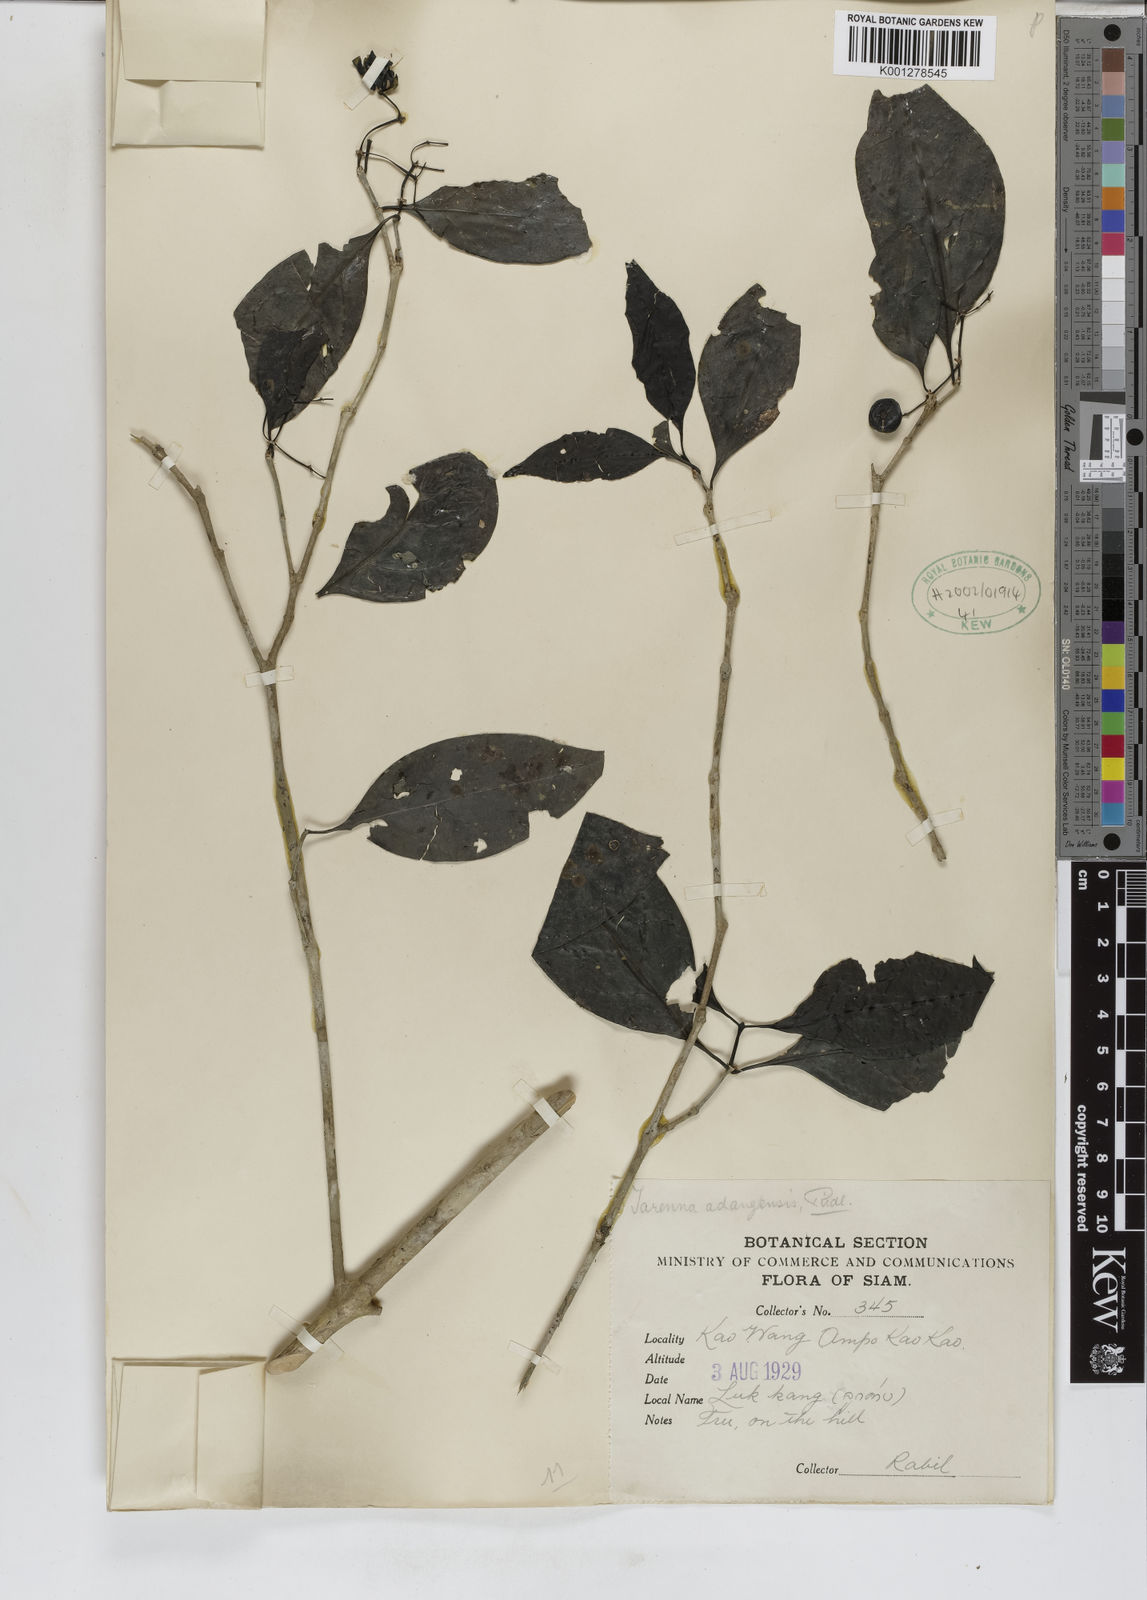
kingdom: Plantae
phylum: Tracheophyta
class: Magnoliopsida
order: Gentianales
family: Rubiaceae
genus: Tarenna
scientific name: Tarenna adangensis
